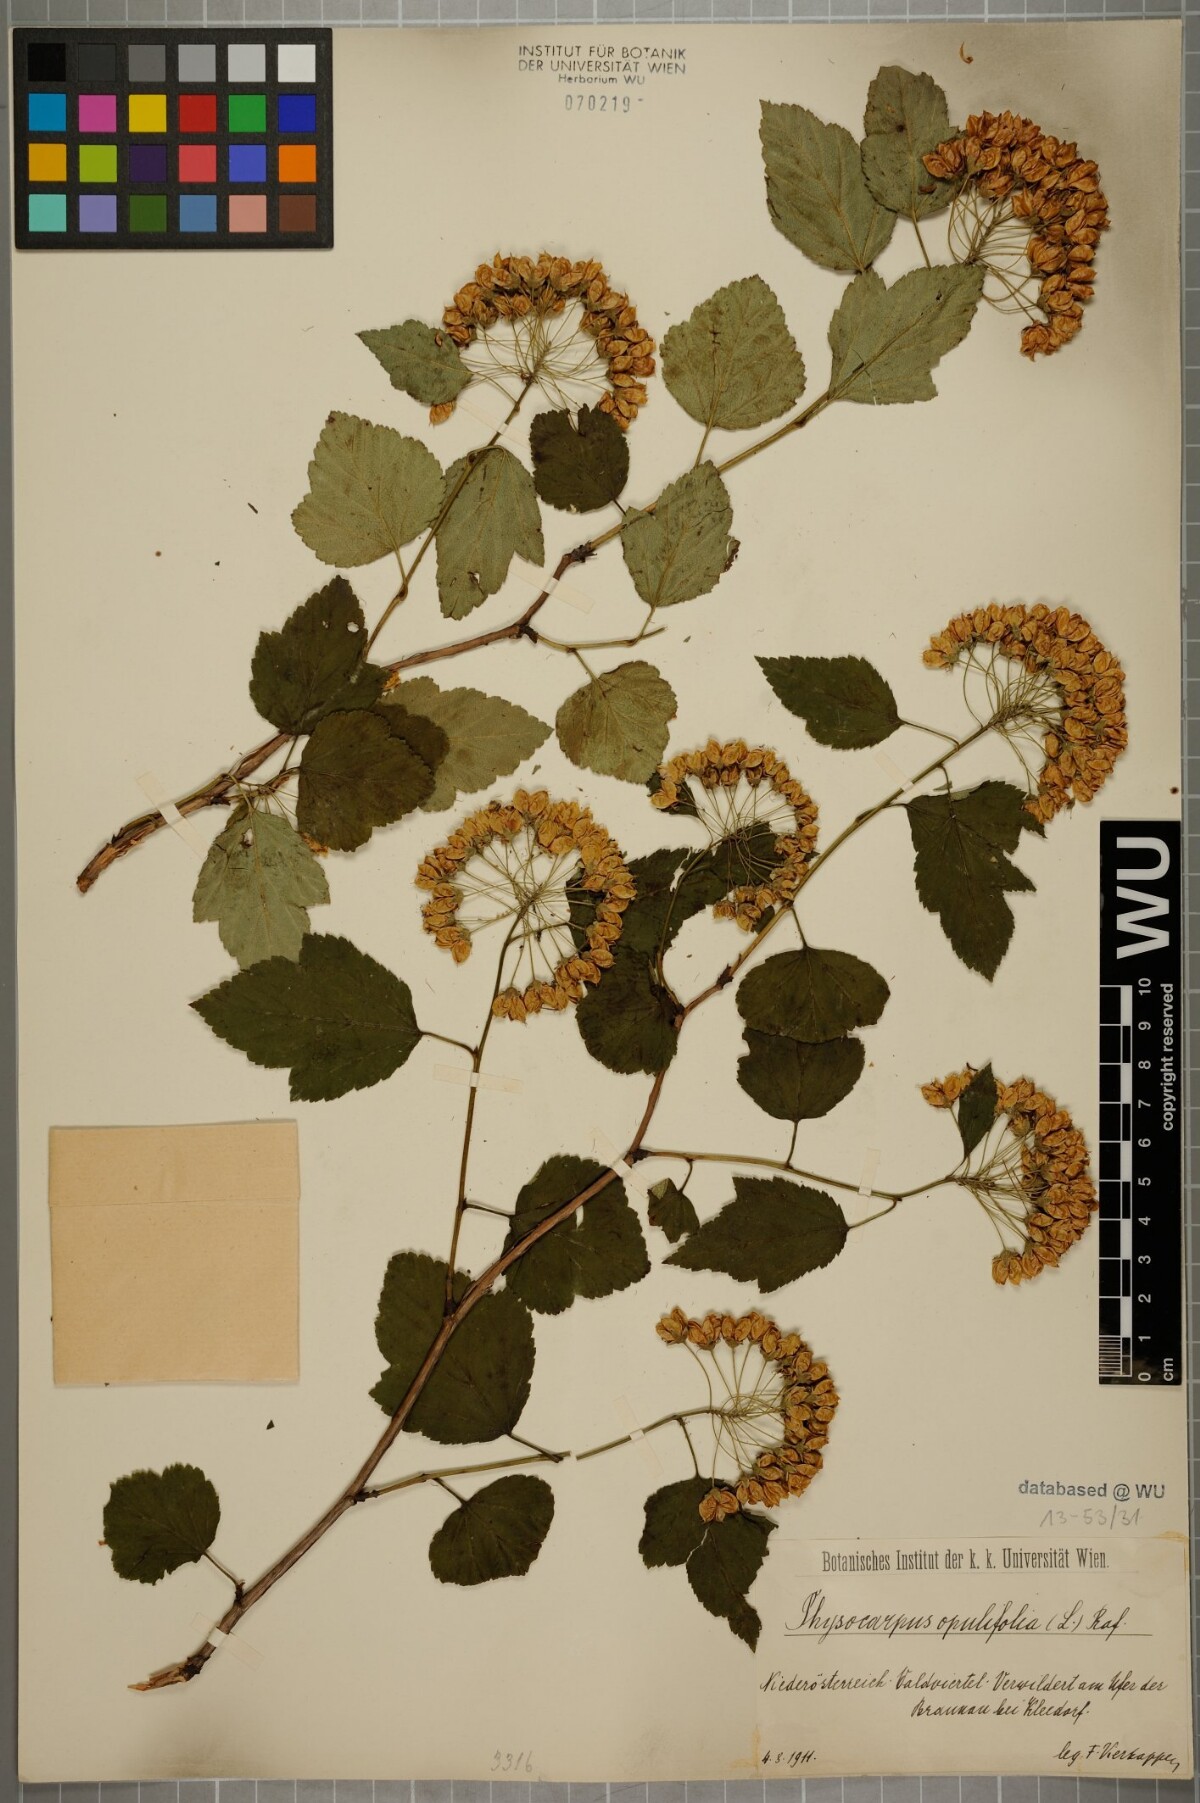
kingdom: Plantae
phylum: Tracheophyta
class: Magnoliopsida
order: Rosales
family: Rosaceae
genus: Physocarpus
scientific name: Physocarpus opulifolius
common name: Ninebark
